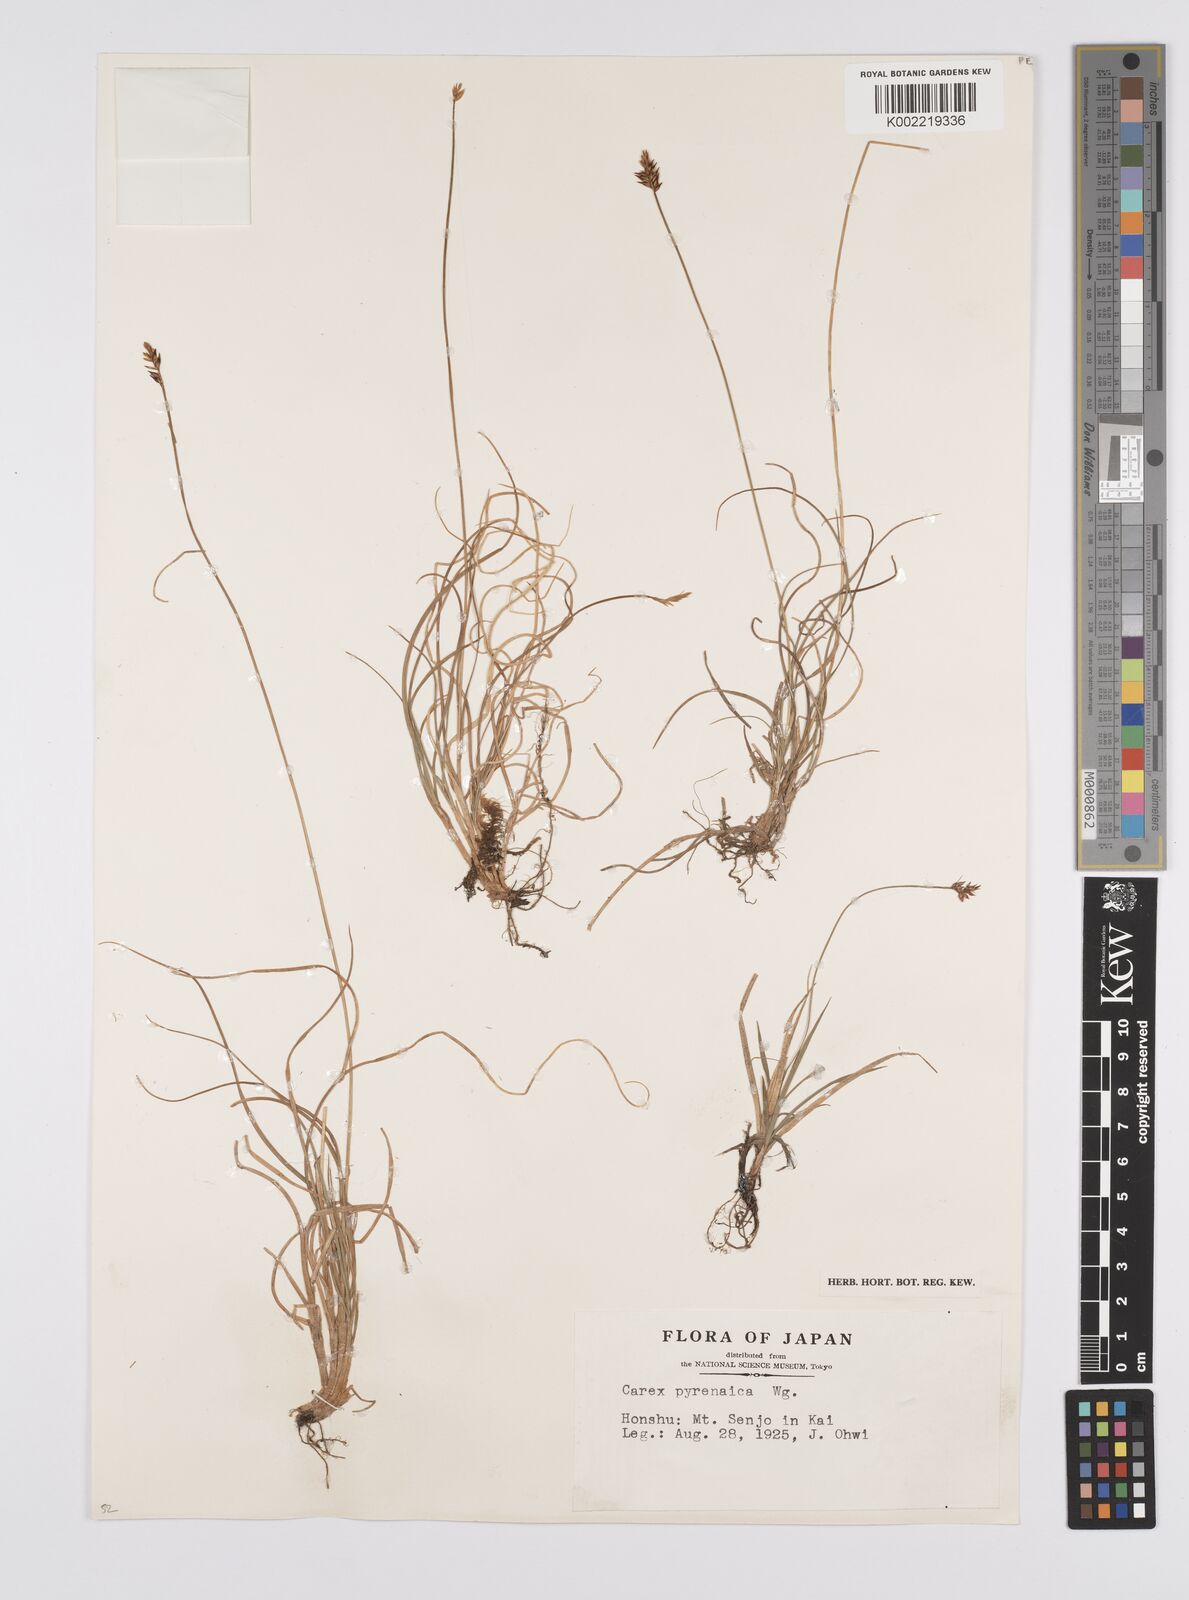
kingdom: Plantae
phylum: Tracheophyta
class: Liliopsida
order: Poales
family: Cyperaceae
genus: Carex
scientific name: Carex pyrenaica
